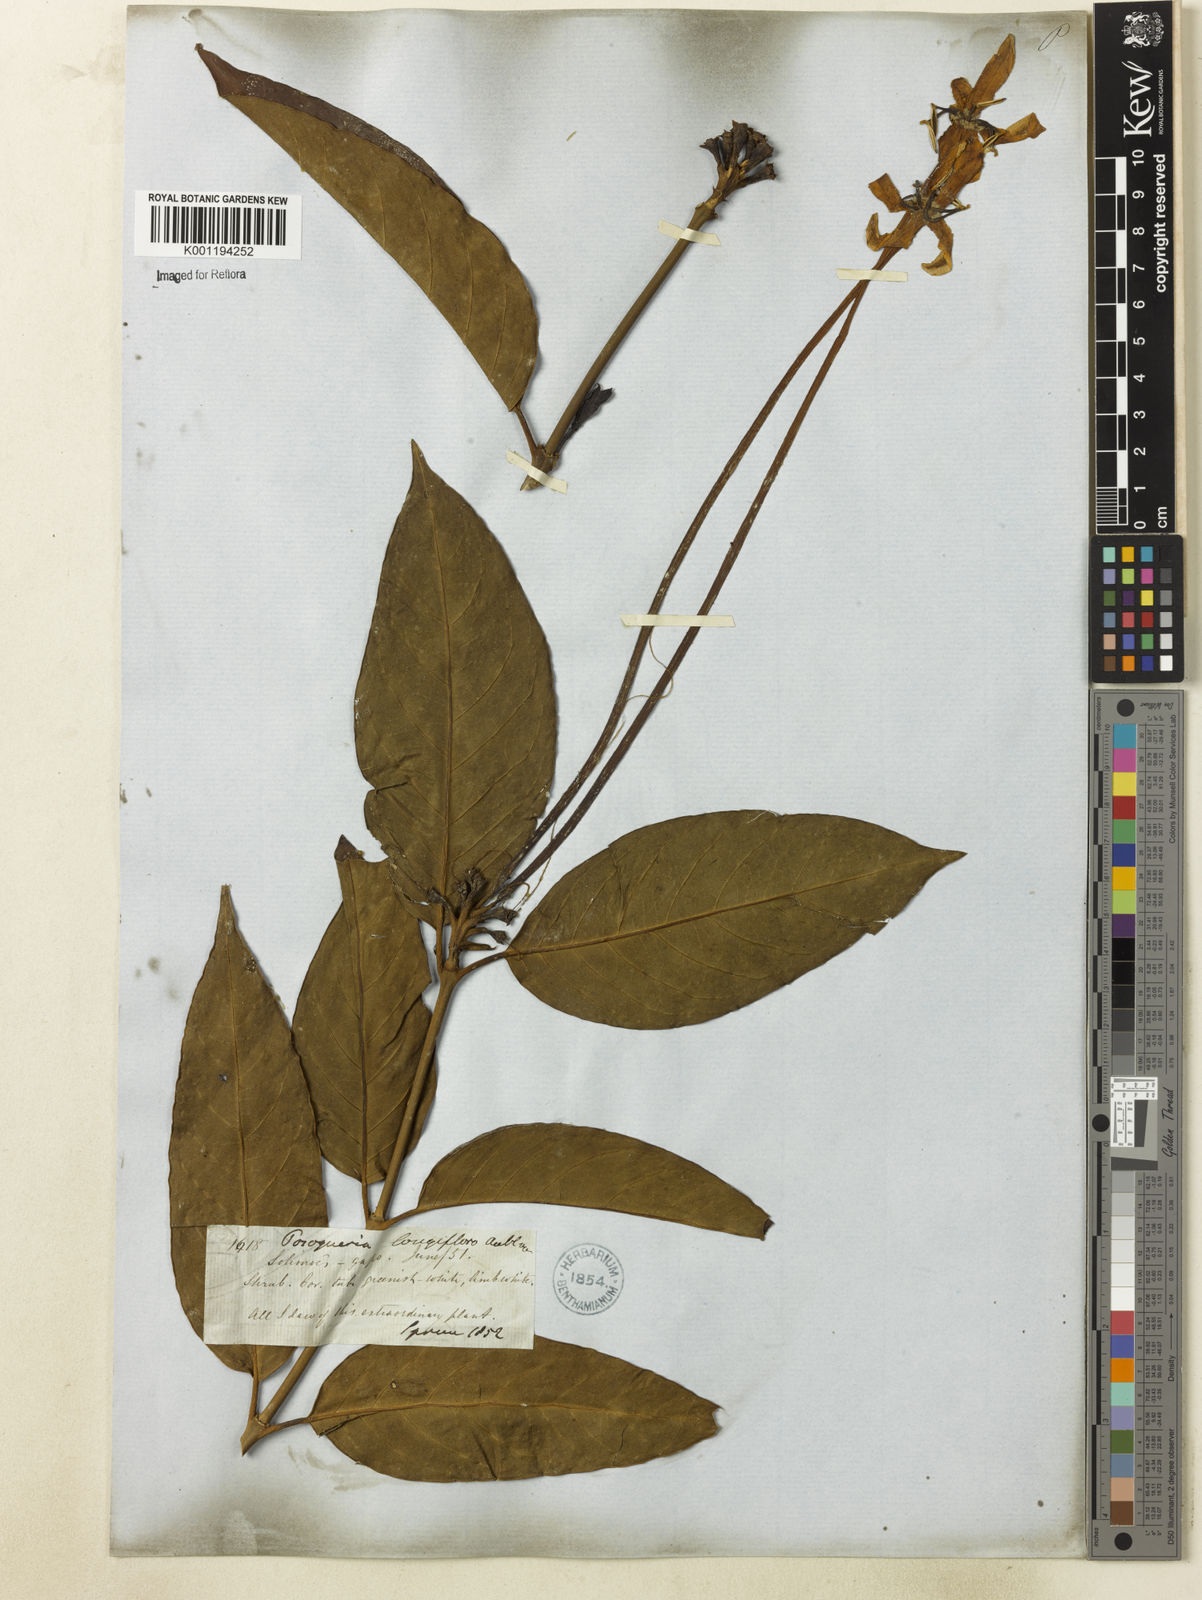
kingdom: Plantae
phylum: Tracheophyta
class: Magnoliopsida
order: Gentianales
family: Rubiaceae
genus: Posoqueria
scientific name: Posoqueria longiflora
